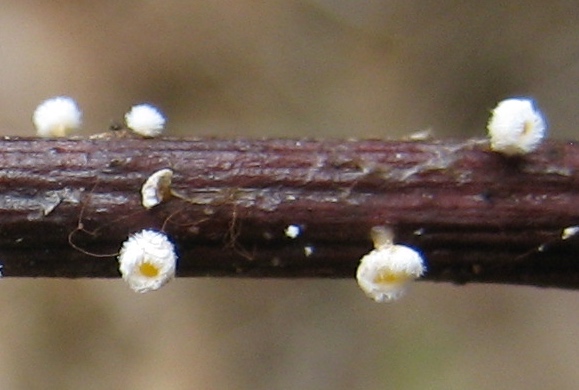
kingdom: Fungi
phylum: Ascomycota
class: Leotiomycetes
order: Helotiales
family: Lachnaceae
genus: Lachnum
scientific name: Lachnum
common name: frynseskive
